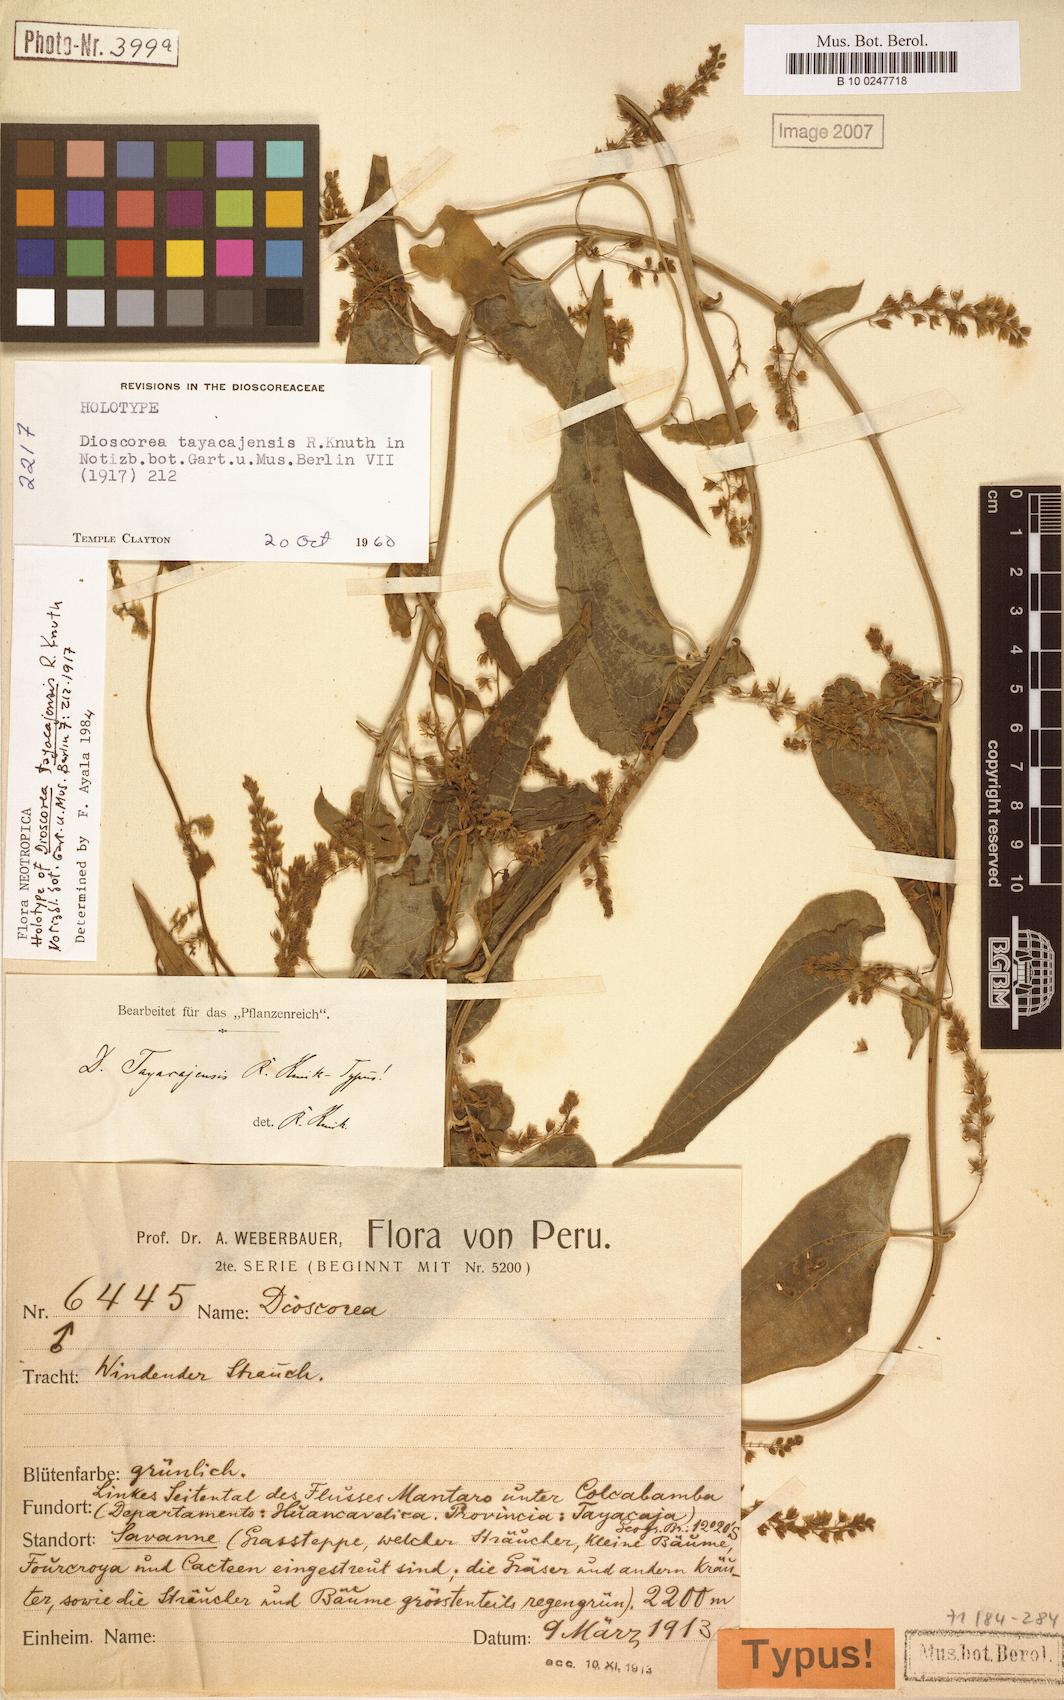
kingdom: Plantae
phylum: Tracheophyta
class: Liliopsida
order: Dioscoreales
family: Dioscoreaceae
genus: Dioscorea
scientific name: Dioscorea tayacajensis
